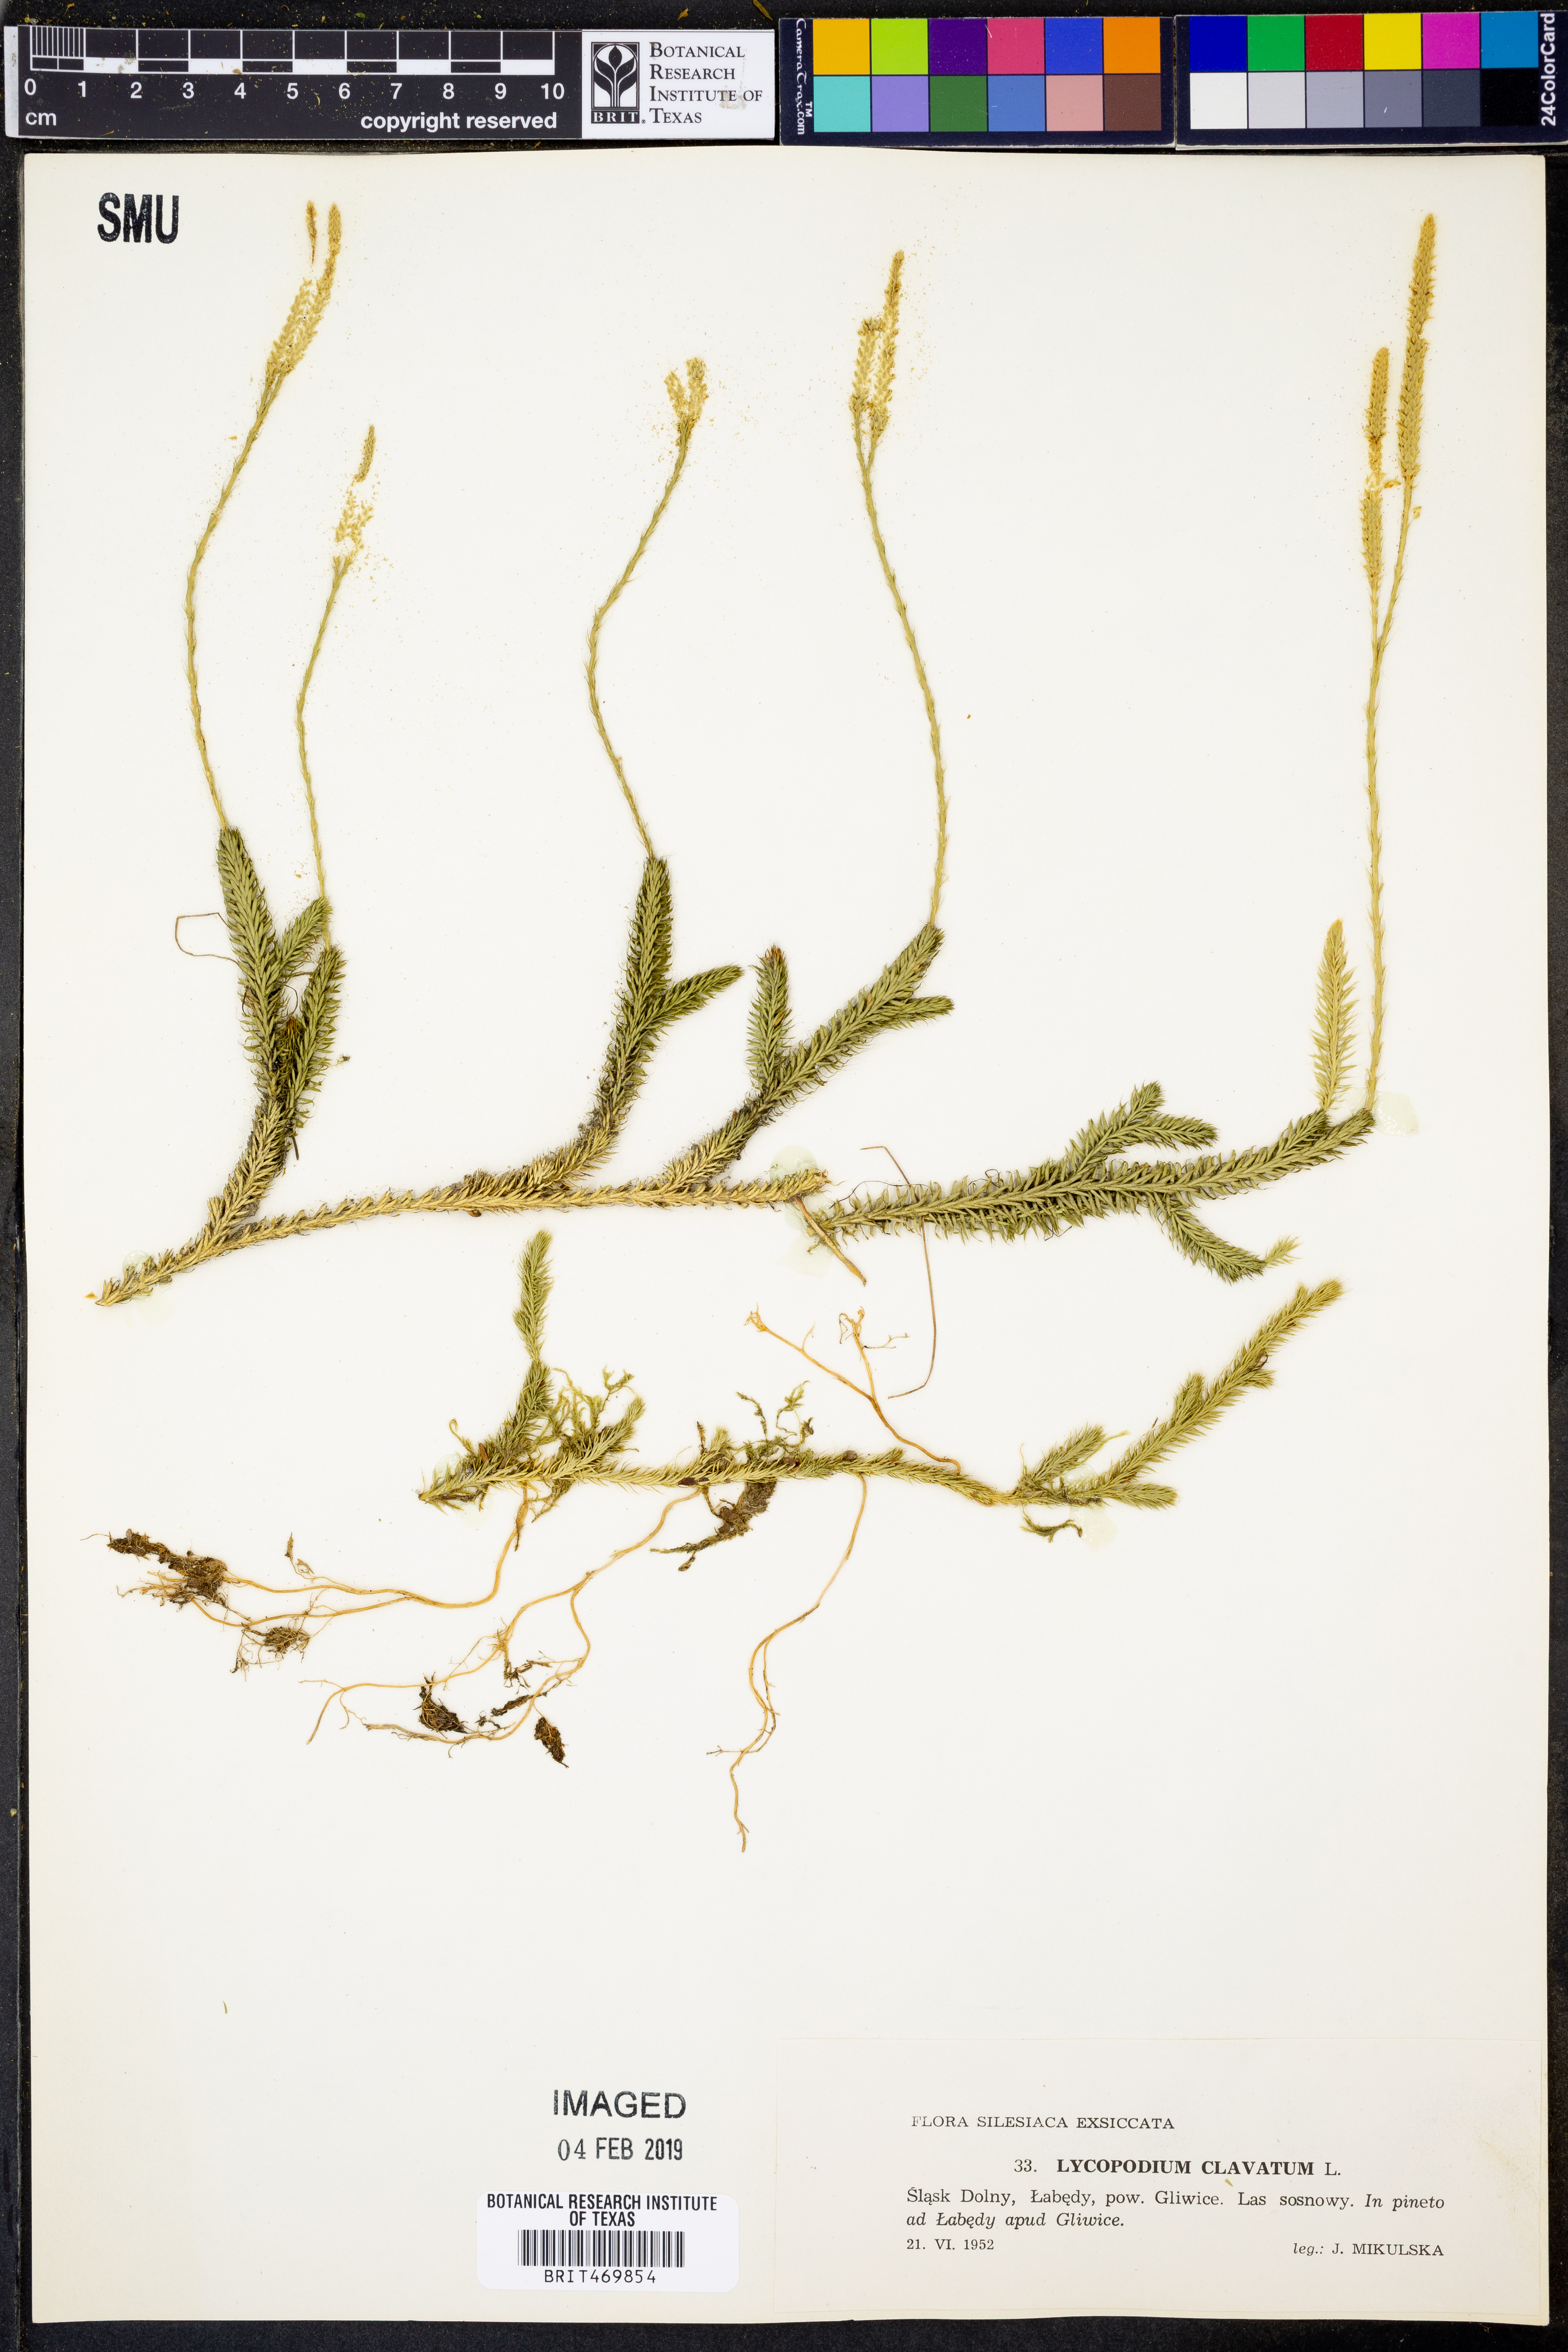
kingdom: Plantae
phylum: Tracheophyta
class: Lycopodiopsida
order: Lycopodiales
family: Lycopodiaceae
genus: Lycopodium
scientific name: Lycopodium clavatum
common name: Stag's-horn clubmoss
